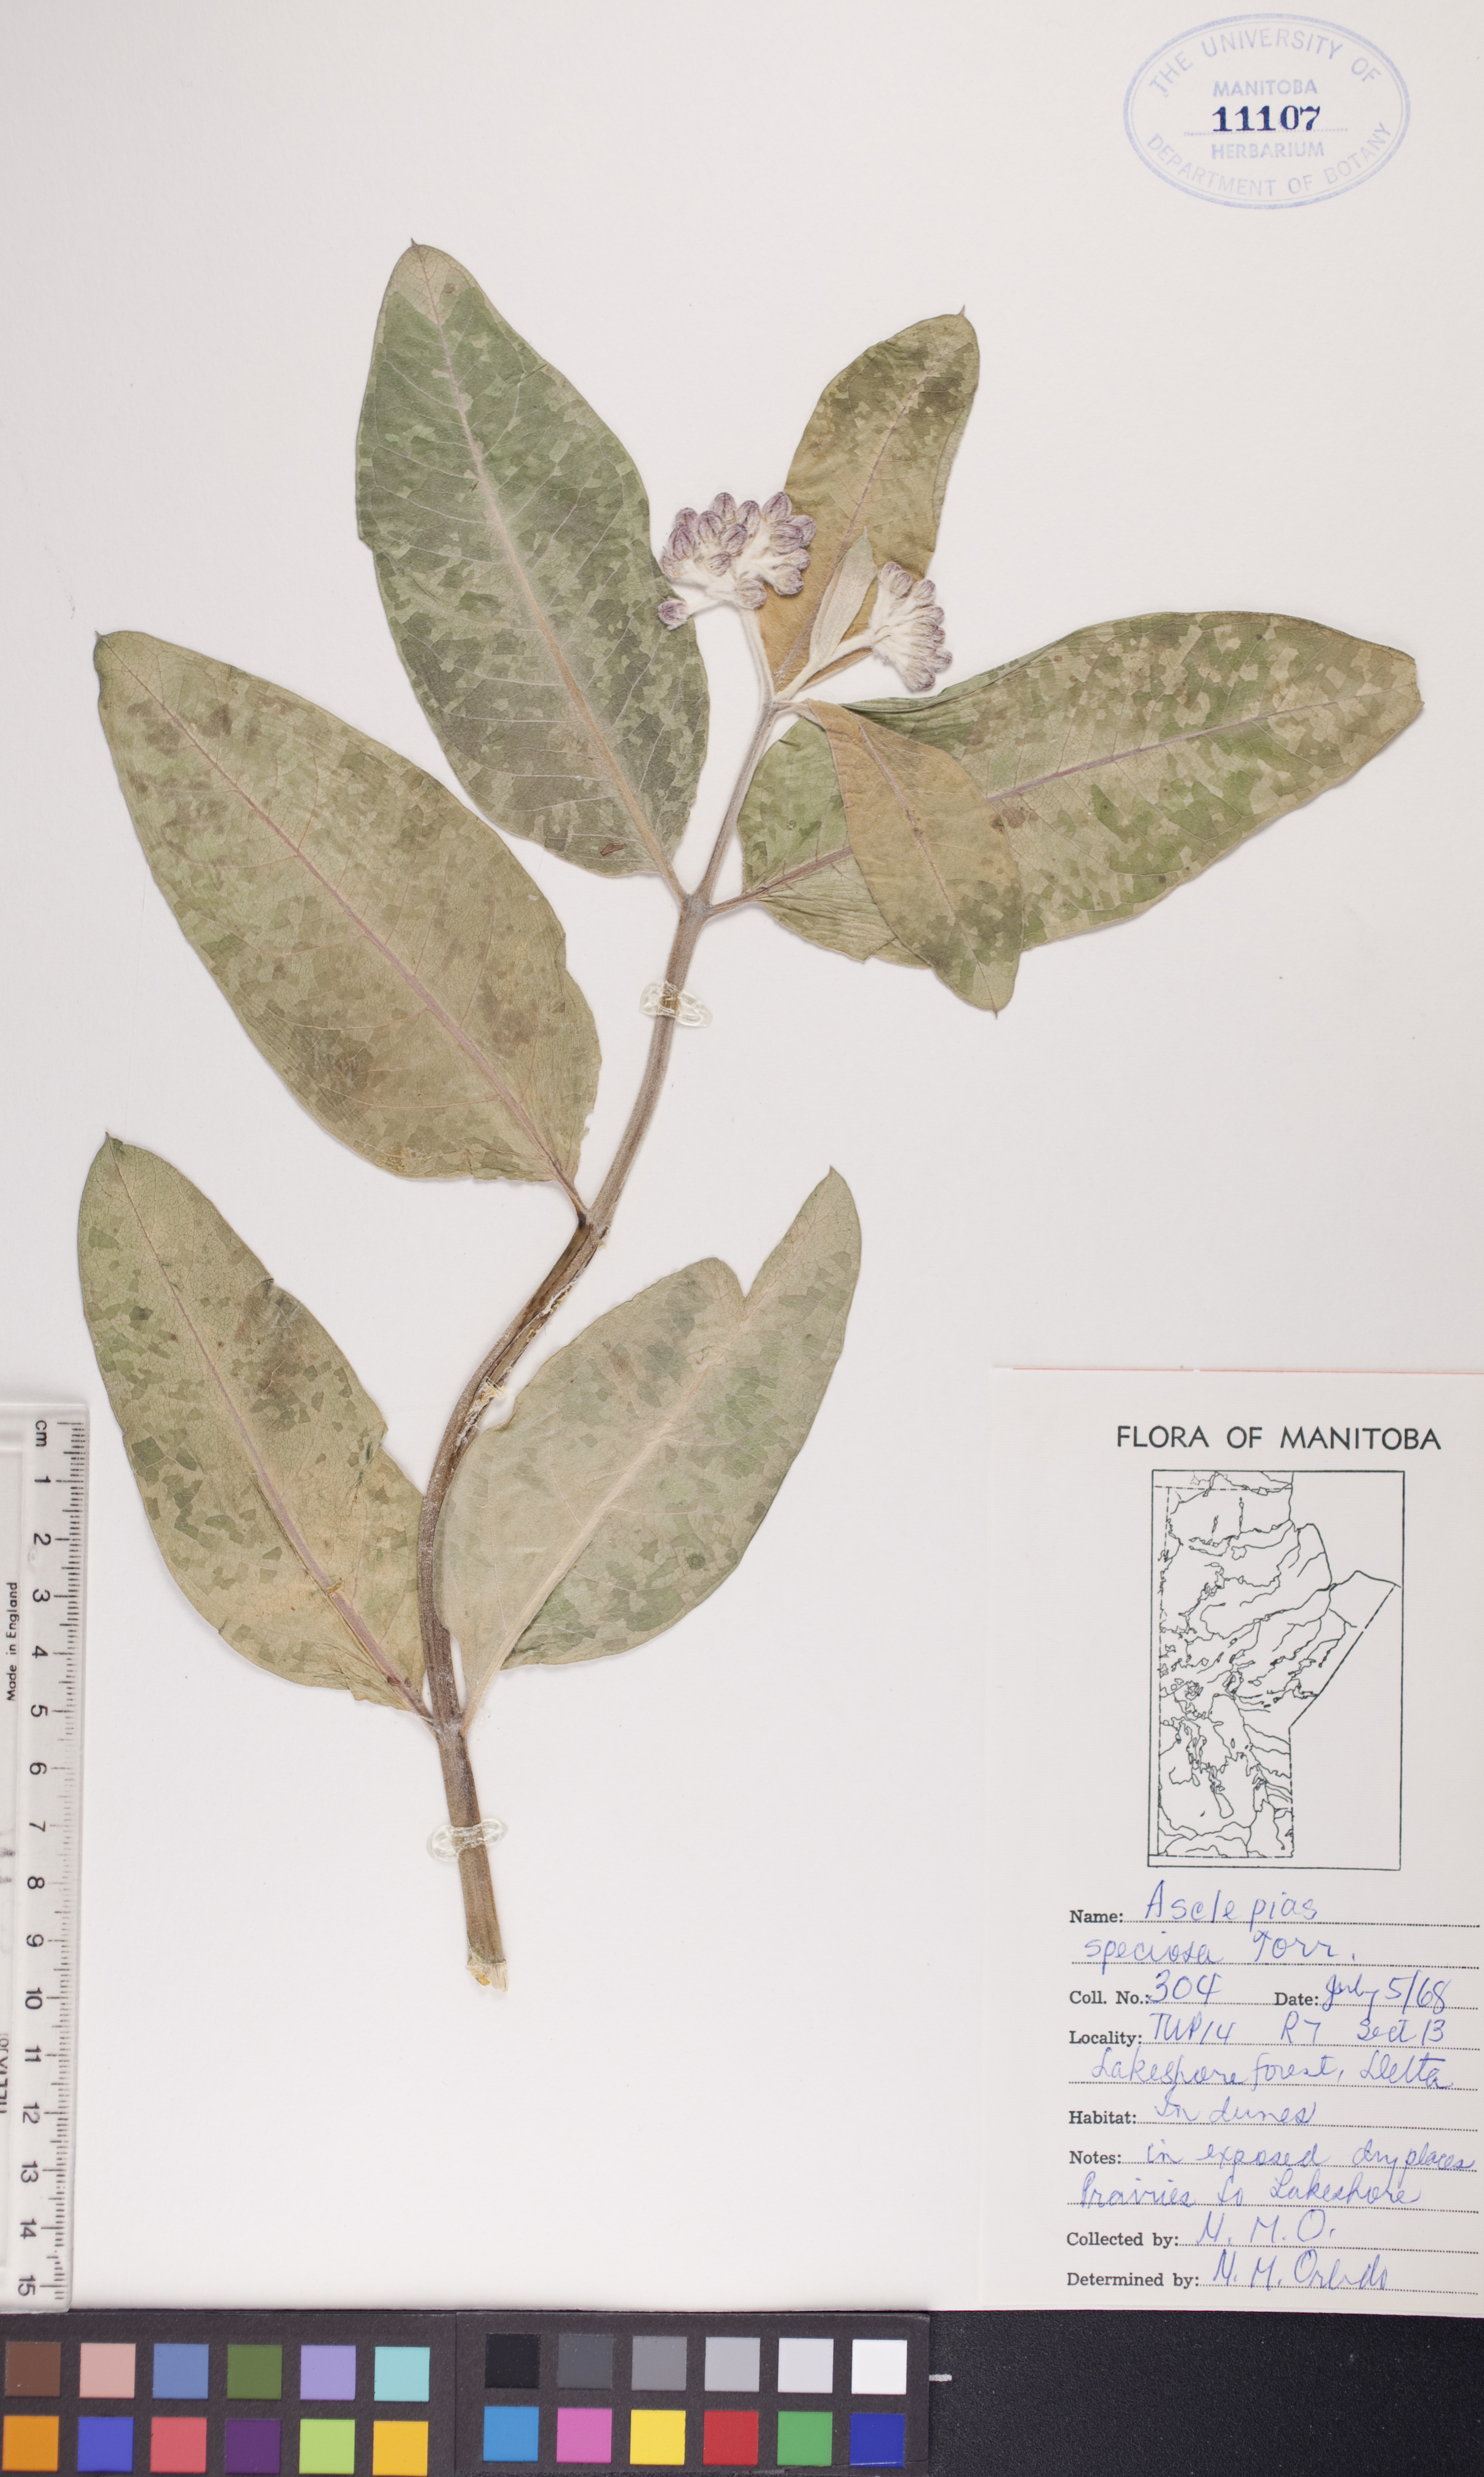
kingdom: Plantae
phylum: Tracheophyta
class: Magnoliopsida
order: Gentianales
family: Apocynaceae
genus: Asclepias
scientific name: Asclepias speciosa
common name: Showy milkweed
